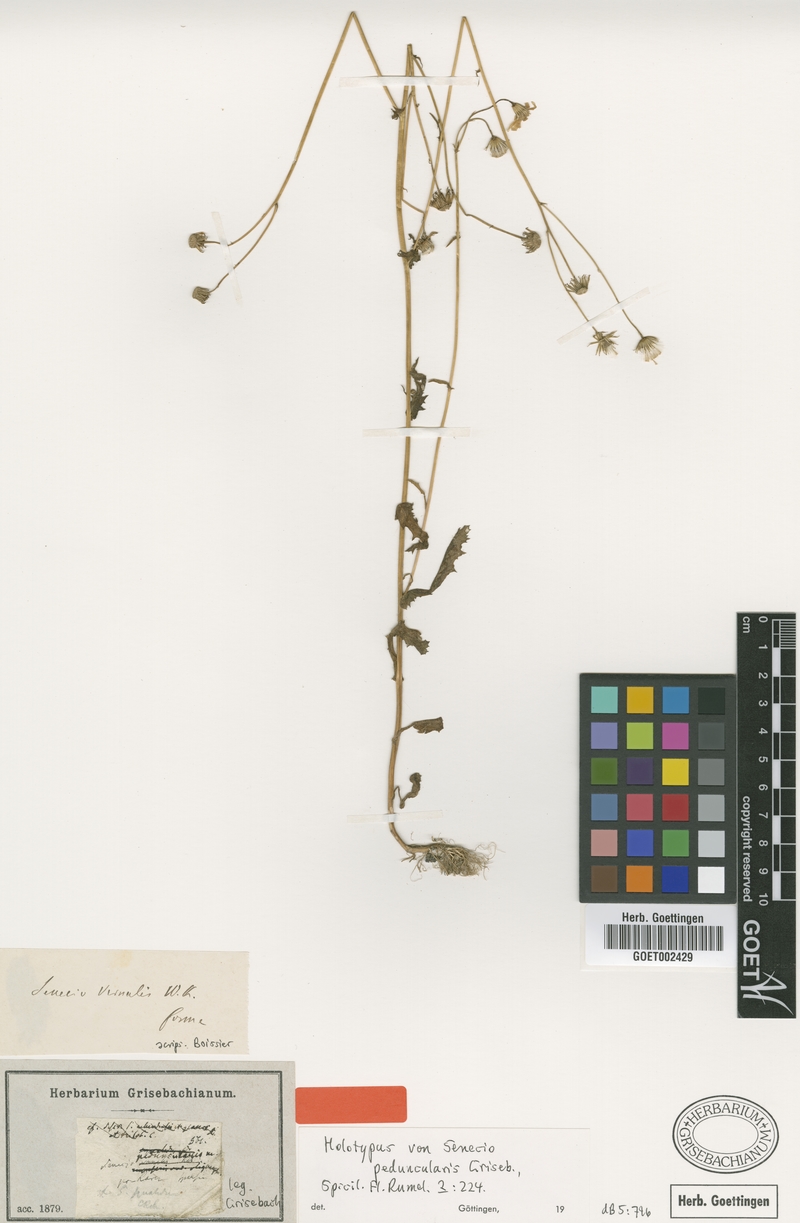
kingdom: Plantae
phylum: Tracheophyta
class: Magnoliopsida
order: Asterales
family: Asteraceae
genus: Senecio
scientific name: Senecio vernalis
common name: Eastern groundsel
